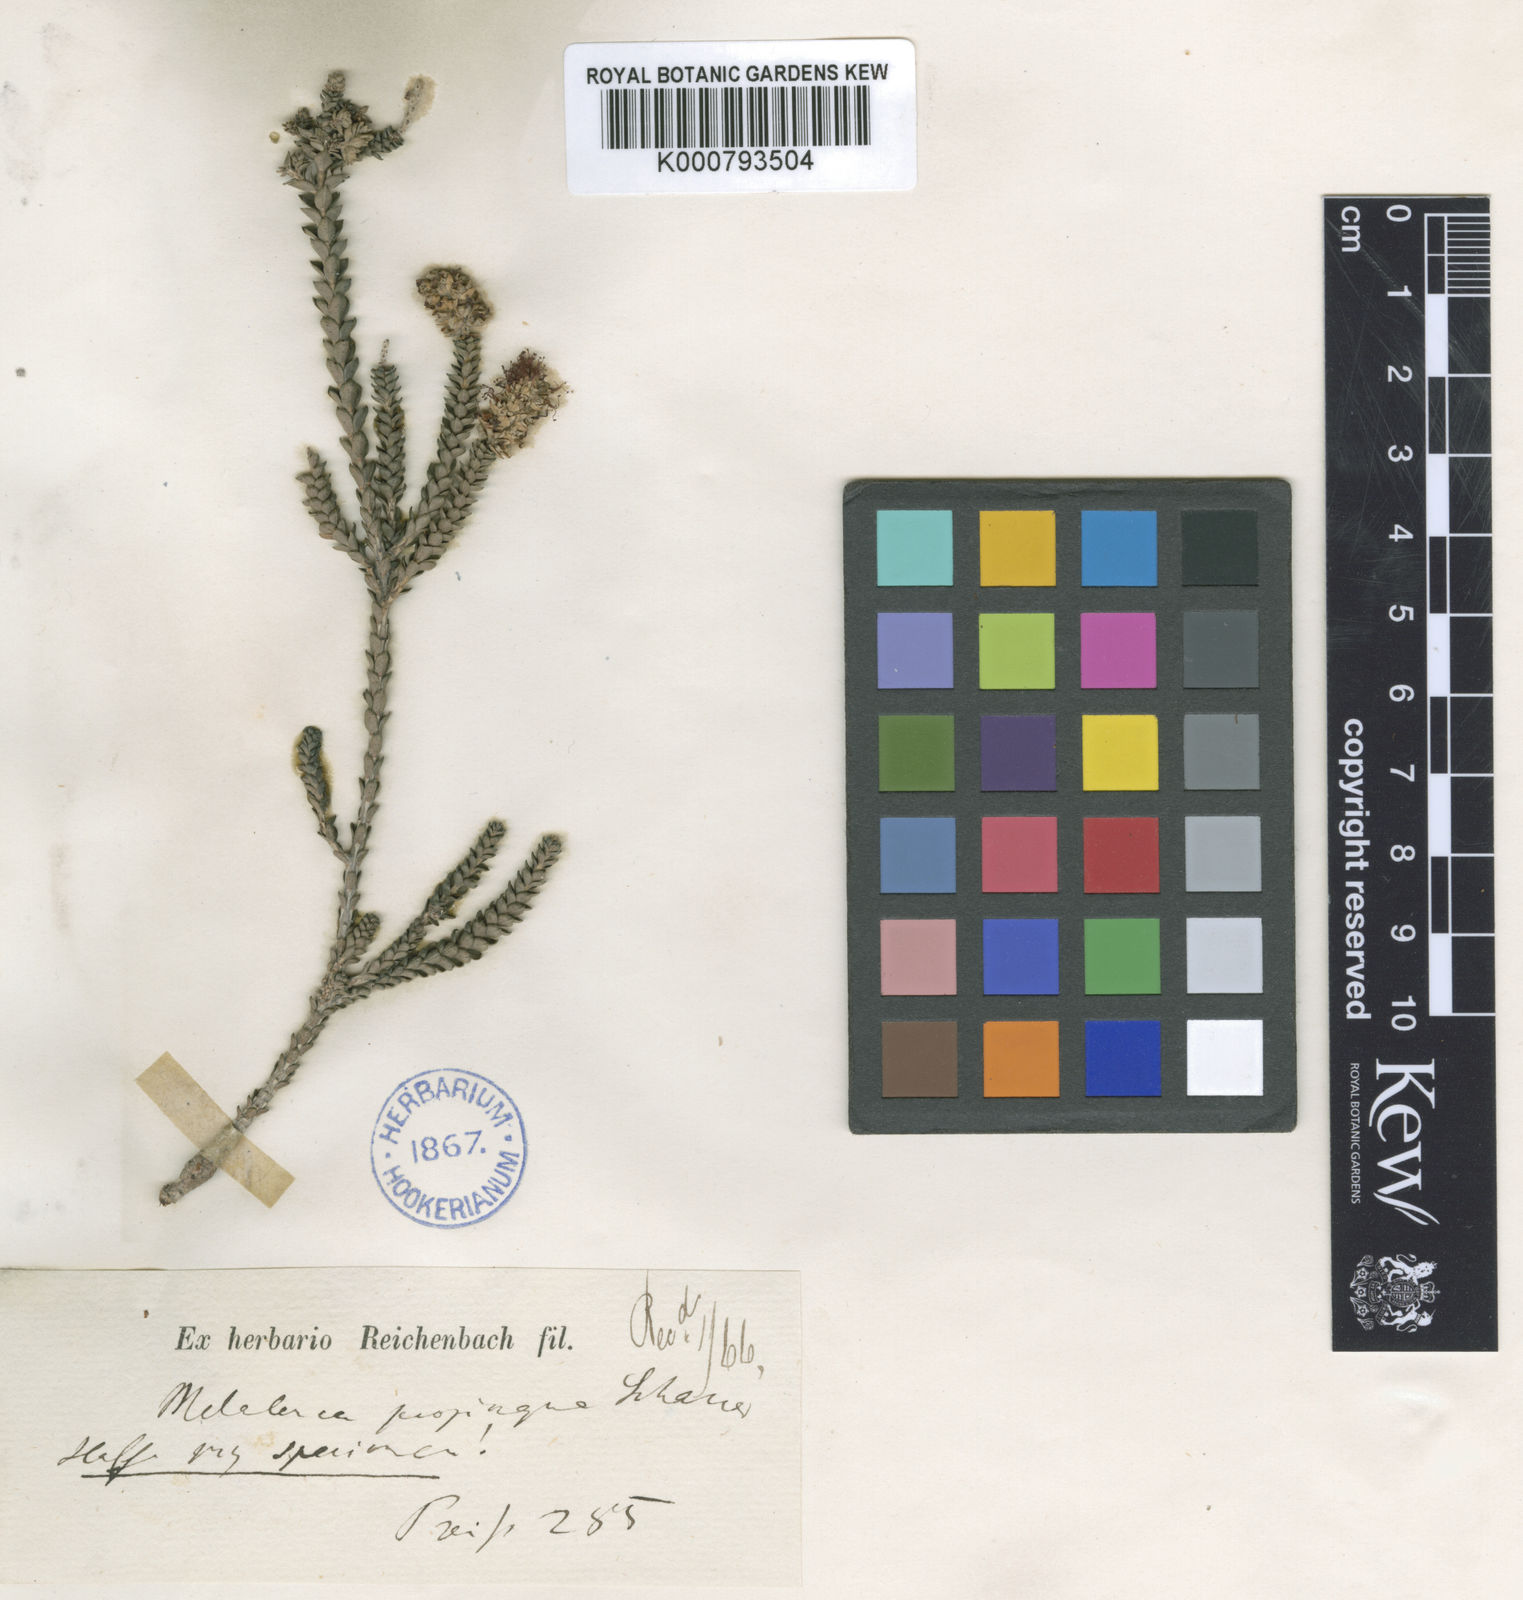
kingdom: Plantae
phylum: Tracheophyta
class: Magnoliopsida
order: Myrtales
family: Myrtaceae
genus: Melaleuca
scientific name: Melaleuca densa
